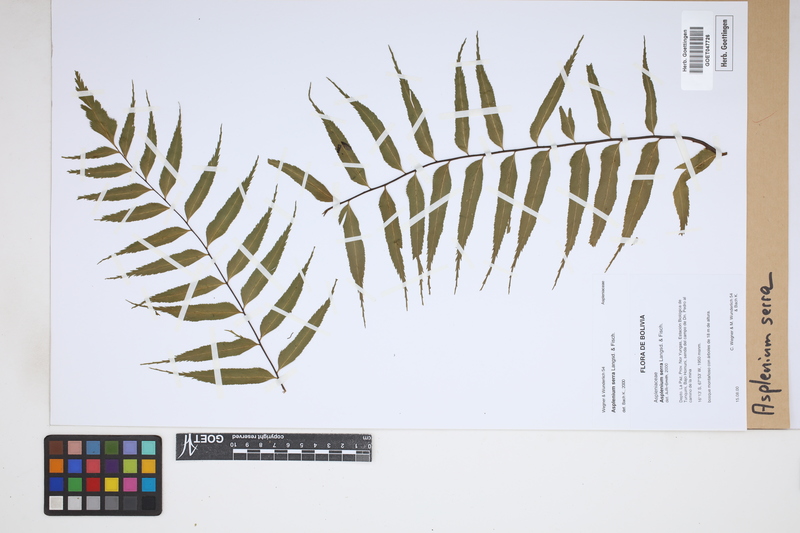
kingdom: Plantae
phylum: Tracheophyta
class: Polypodiopsida
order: Polypodiales
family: Aspleniaceae
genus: Asplenium
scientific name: Asplenium serra
